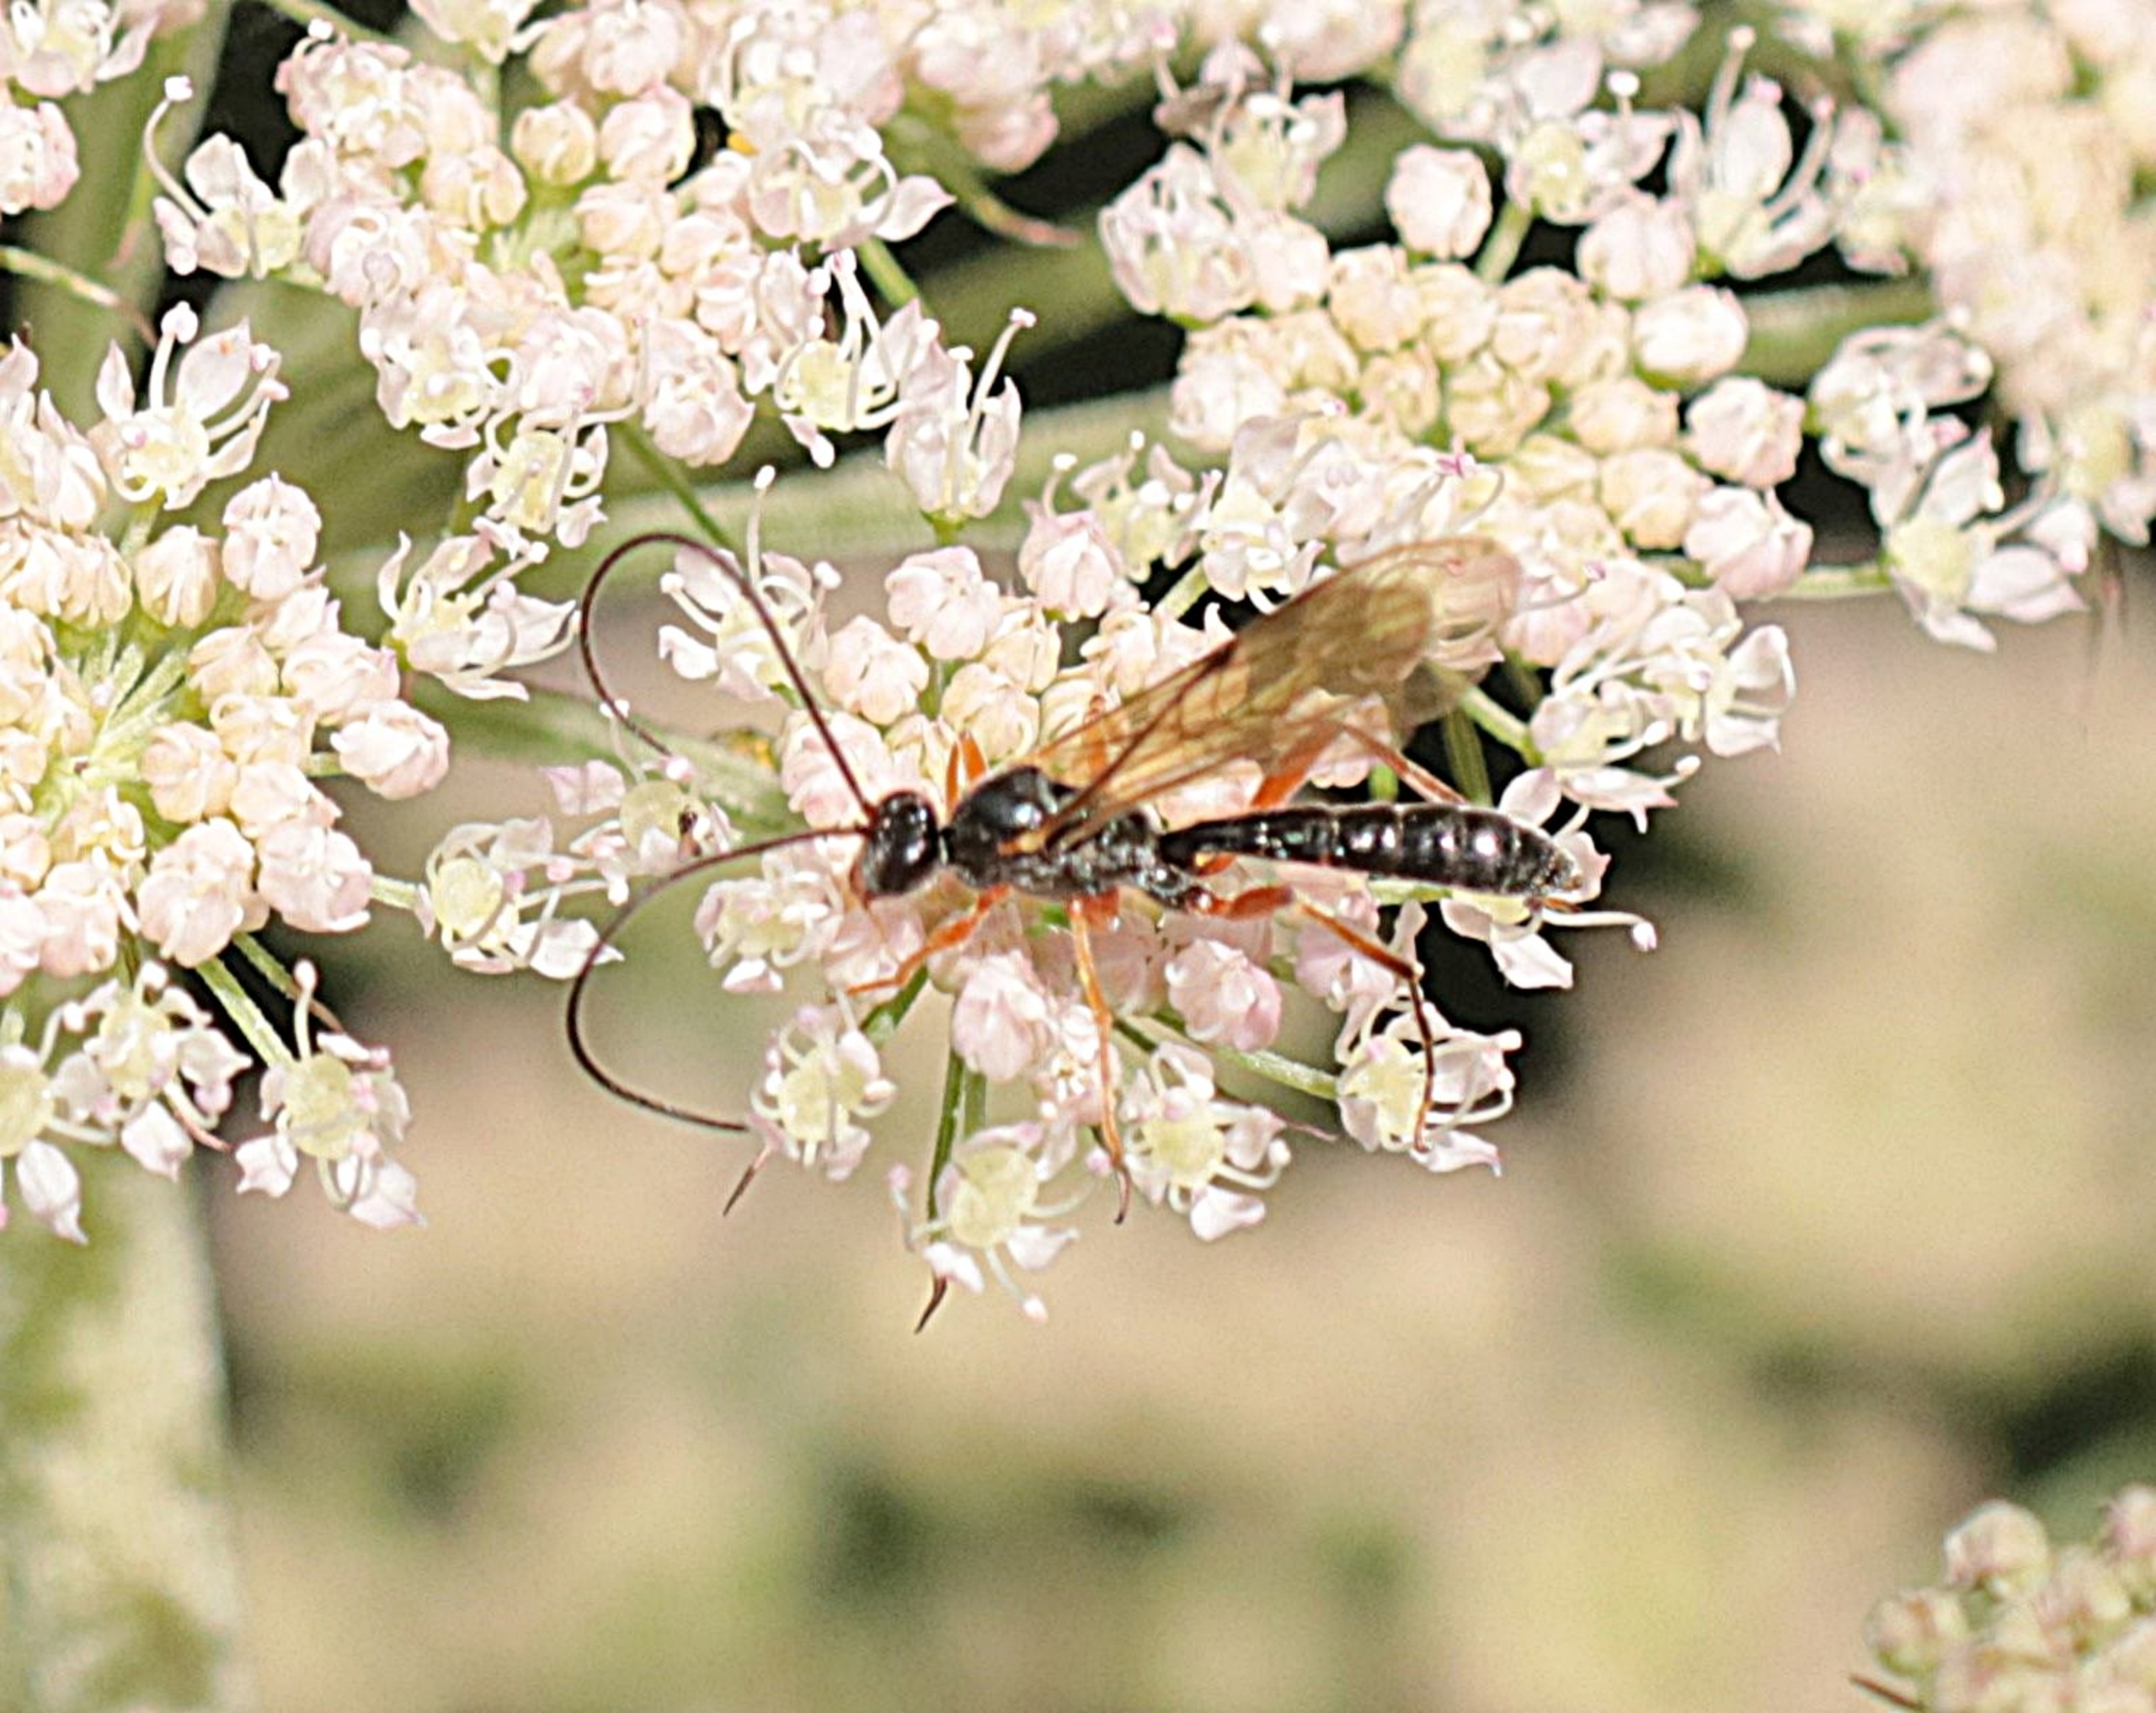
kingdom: Animalia
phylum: Arthropoda
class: Insecta
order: Hymenoptera
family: Ichneumonidae
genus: Dyspetes
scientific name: Dyspetes luteomarginatus
